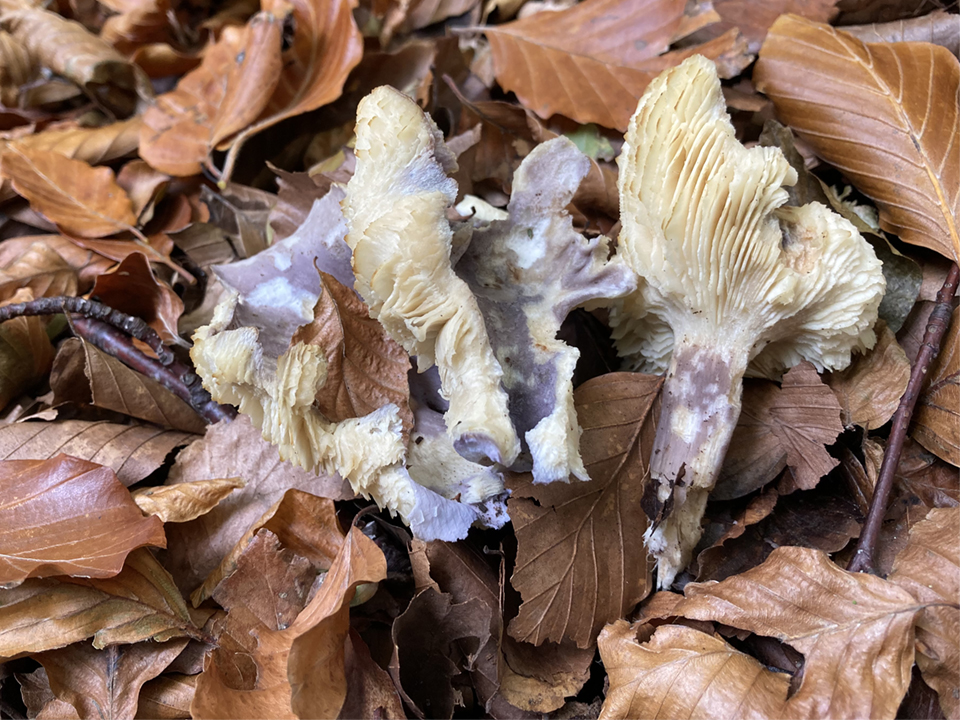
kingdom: Fungi
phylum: Basidiomycota
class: Agaricomycetes
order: Agaricales
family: Lyophyllaceae
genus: Calocybe
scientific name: Calocybe ionides
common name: violblå fagerhat
